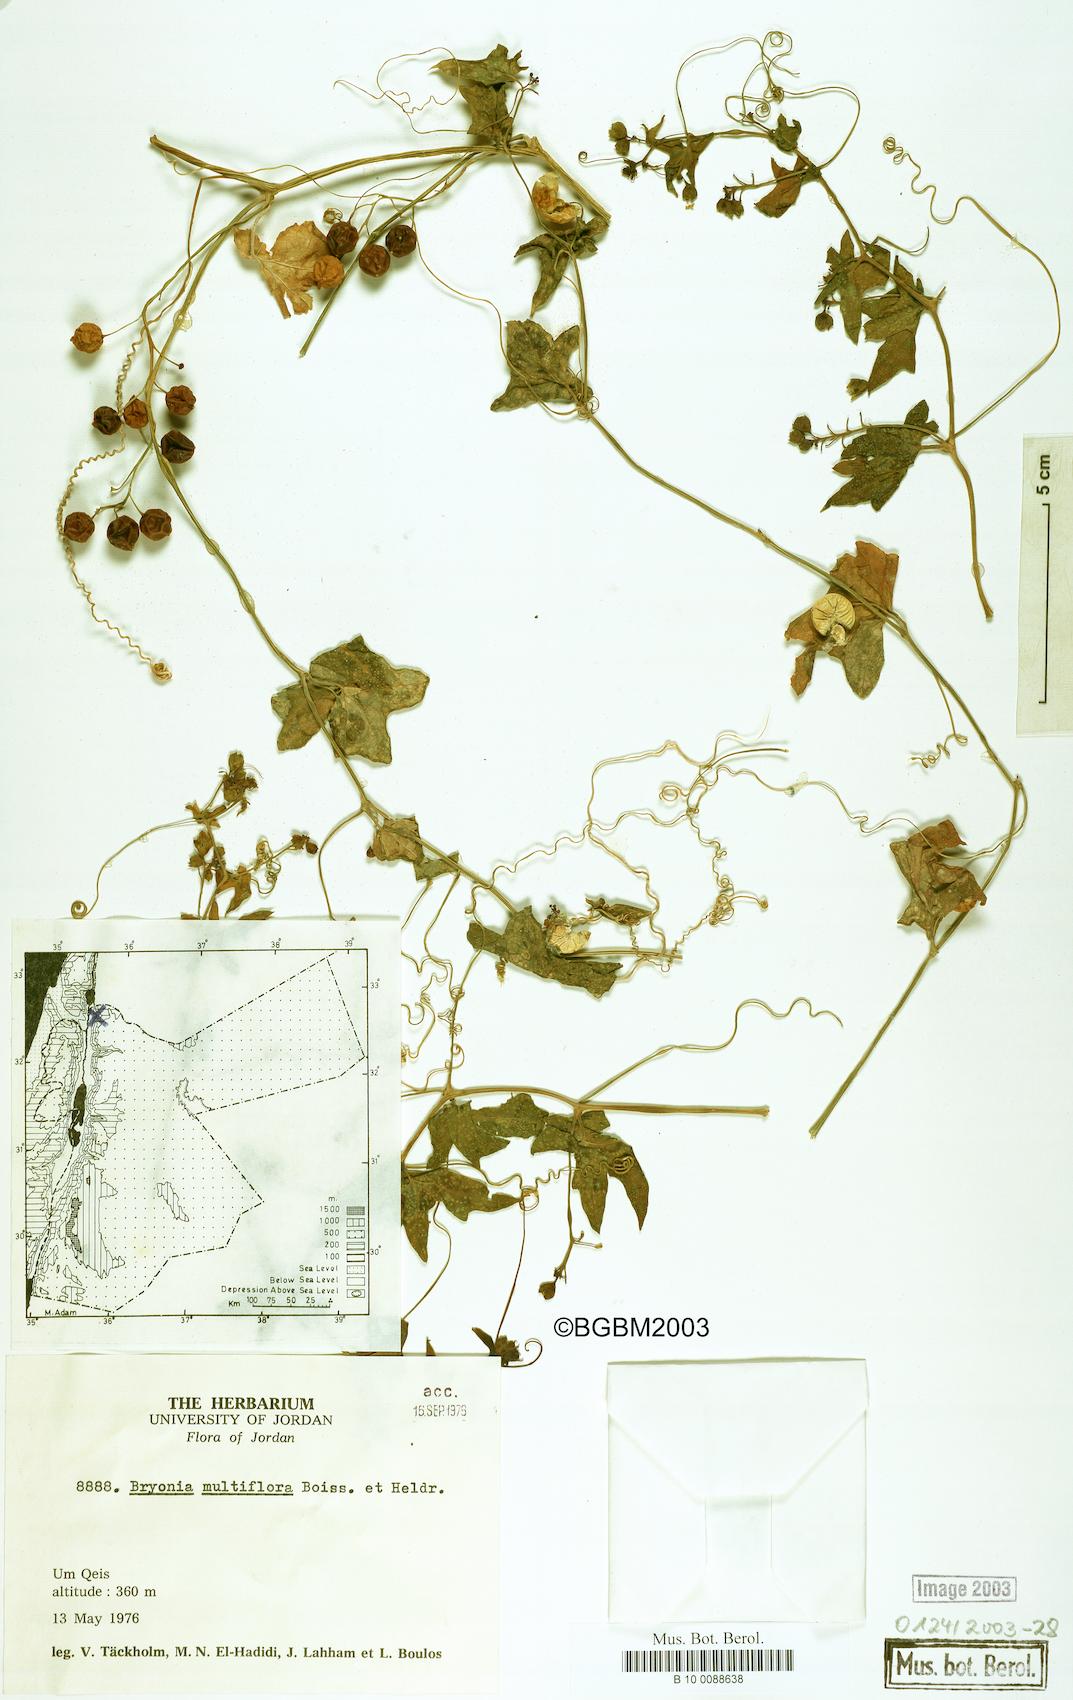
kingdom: Plantae
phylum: Tracheophyta
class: Magnoliopsida
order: Cucurbitales
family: Cucurbitaceae
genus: Bryonia
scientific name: Bryonia multiflora
